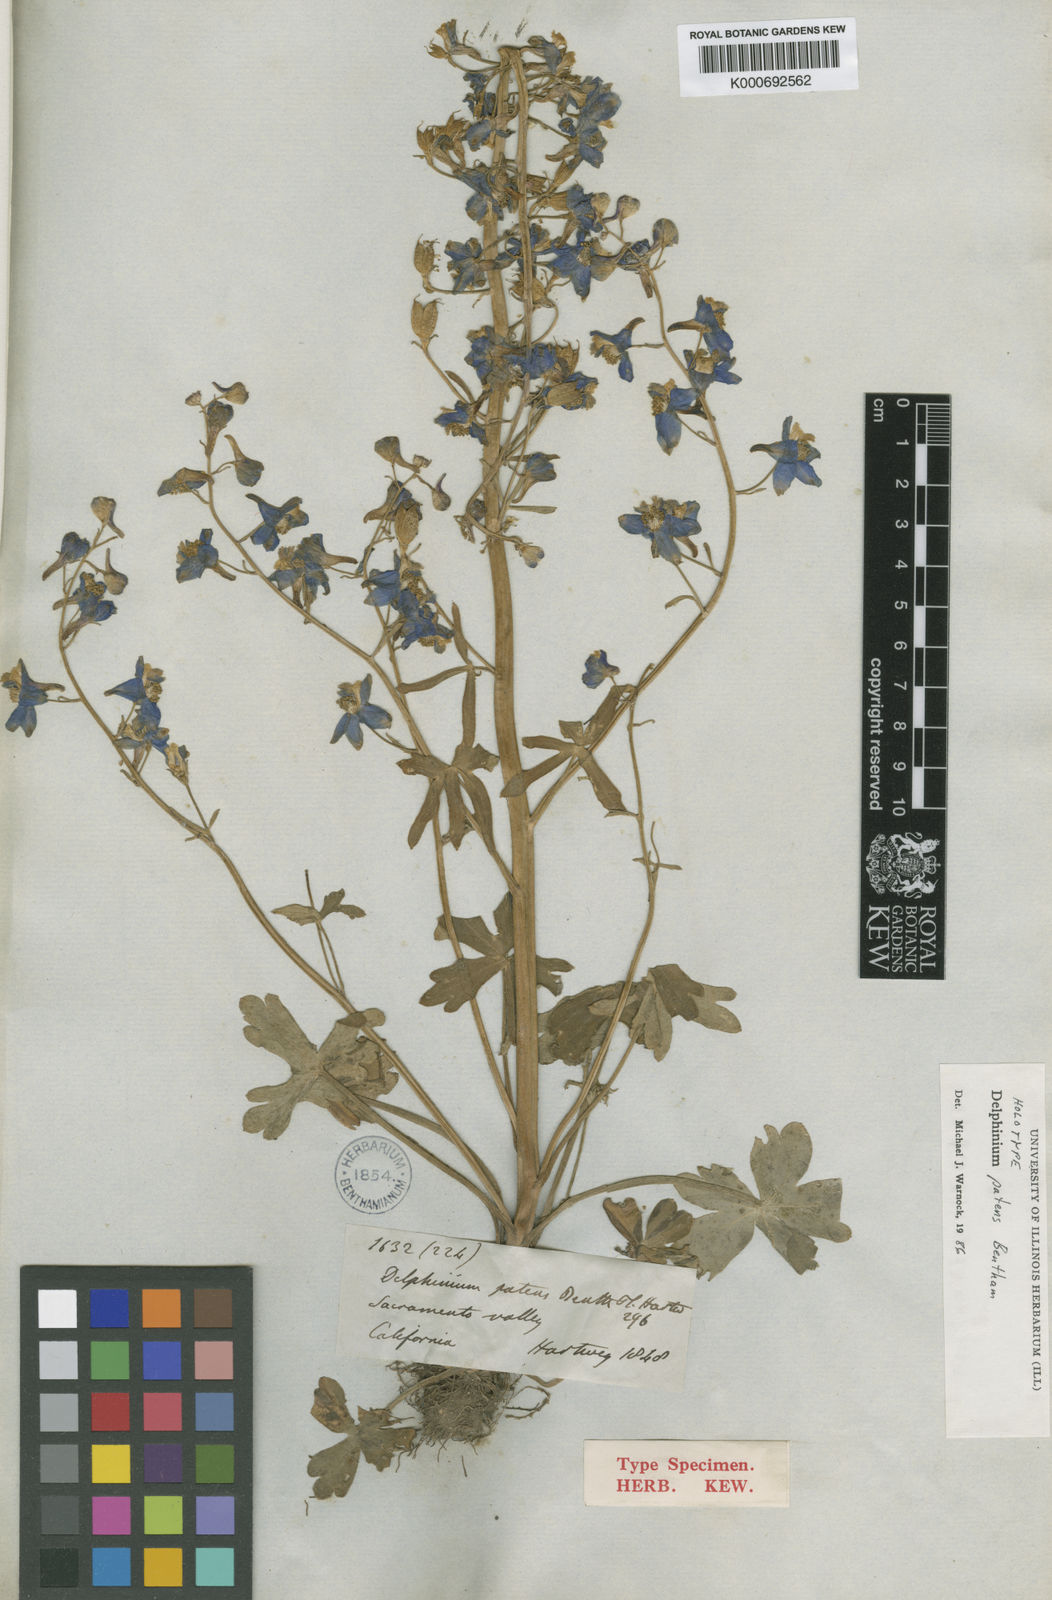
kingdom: Plantae
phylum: Tracheophyta
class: Magnoliopsida
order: Ranunculales
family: Ranunculaceae
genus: Delphinium
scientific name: Delphinium decorum
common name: Coast larkspur
